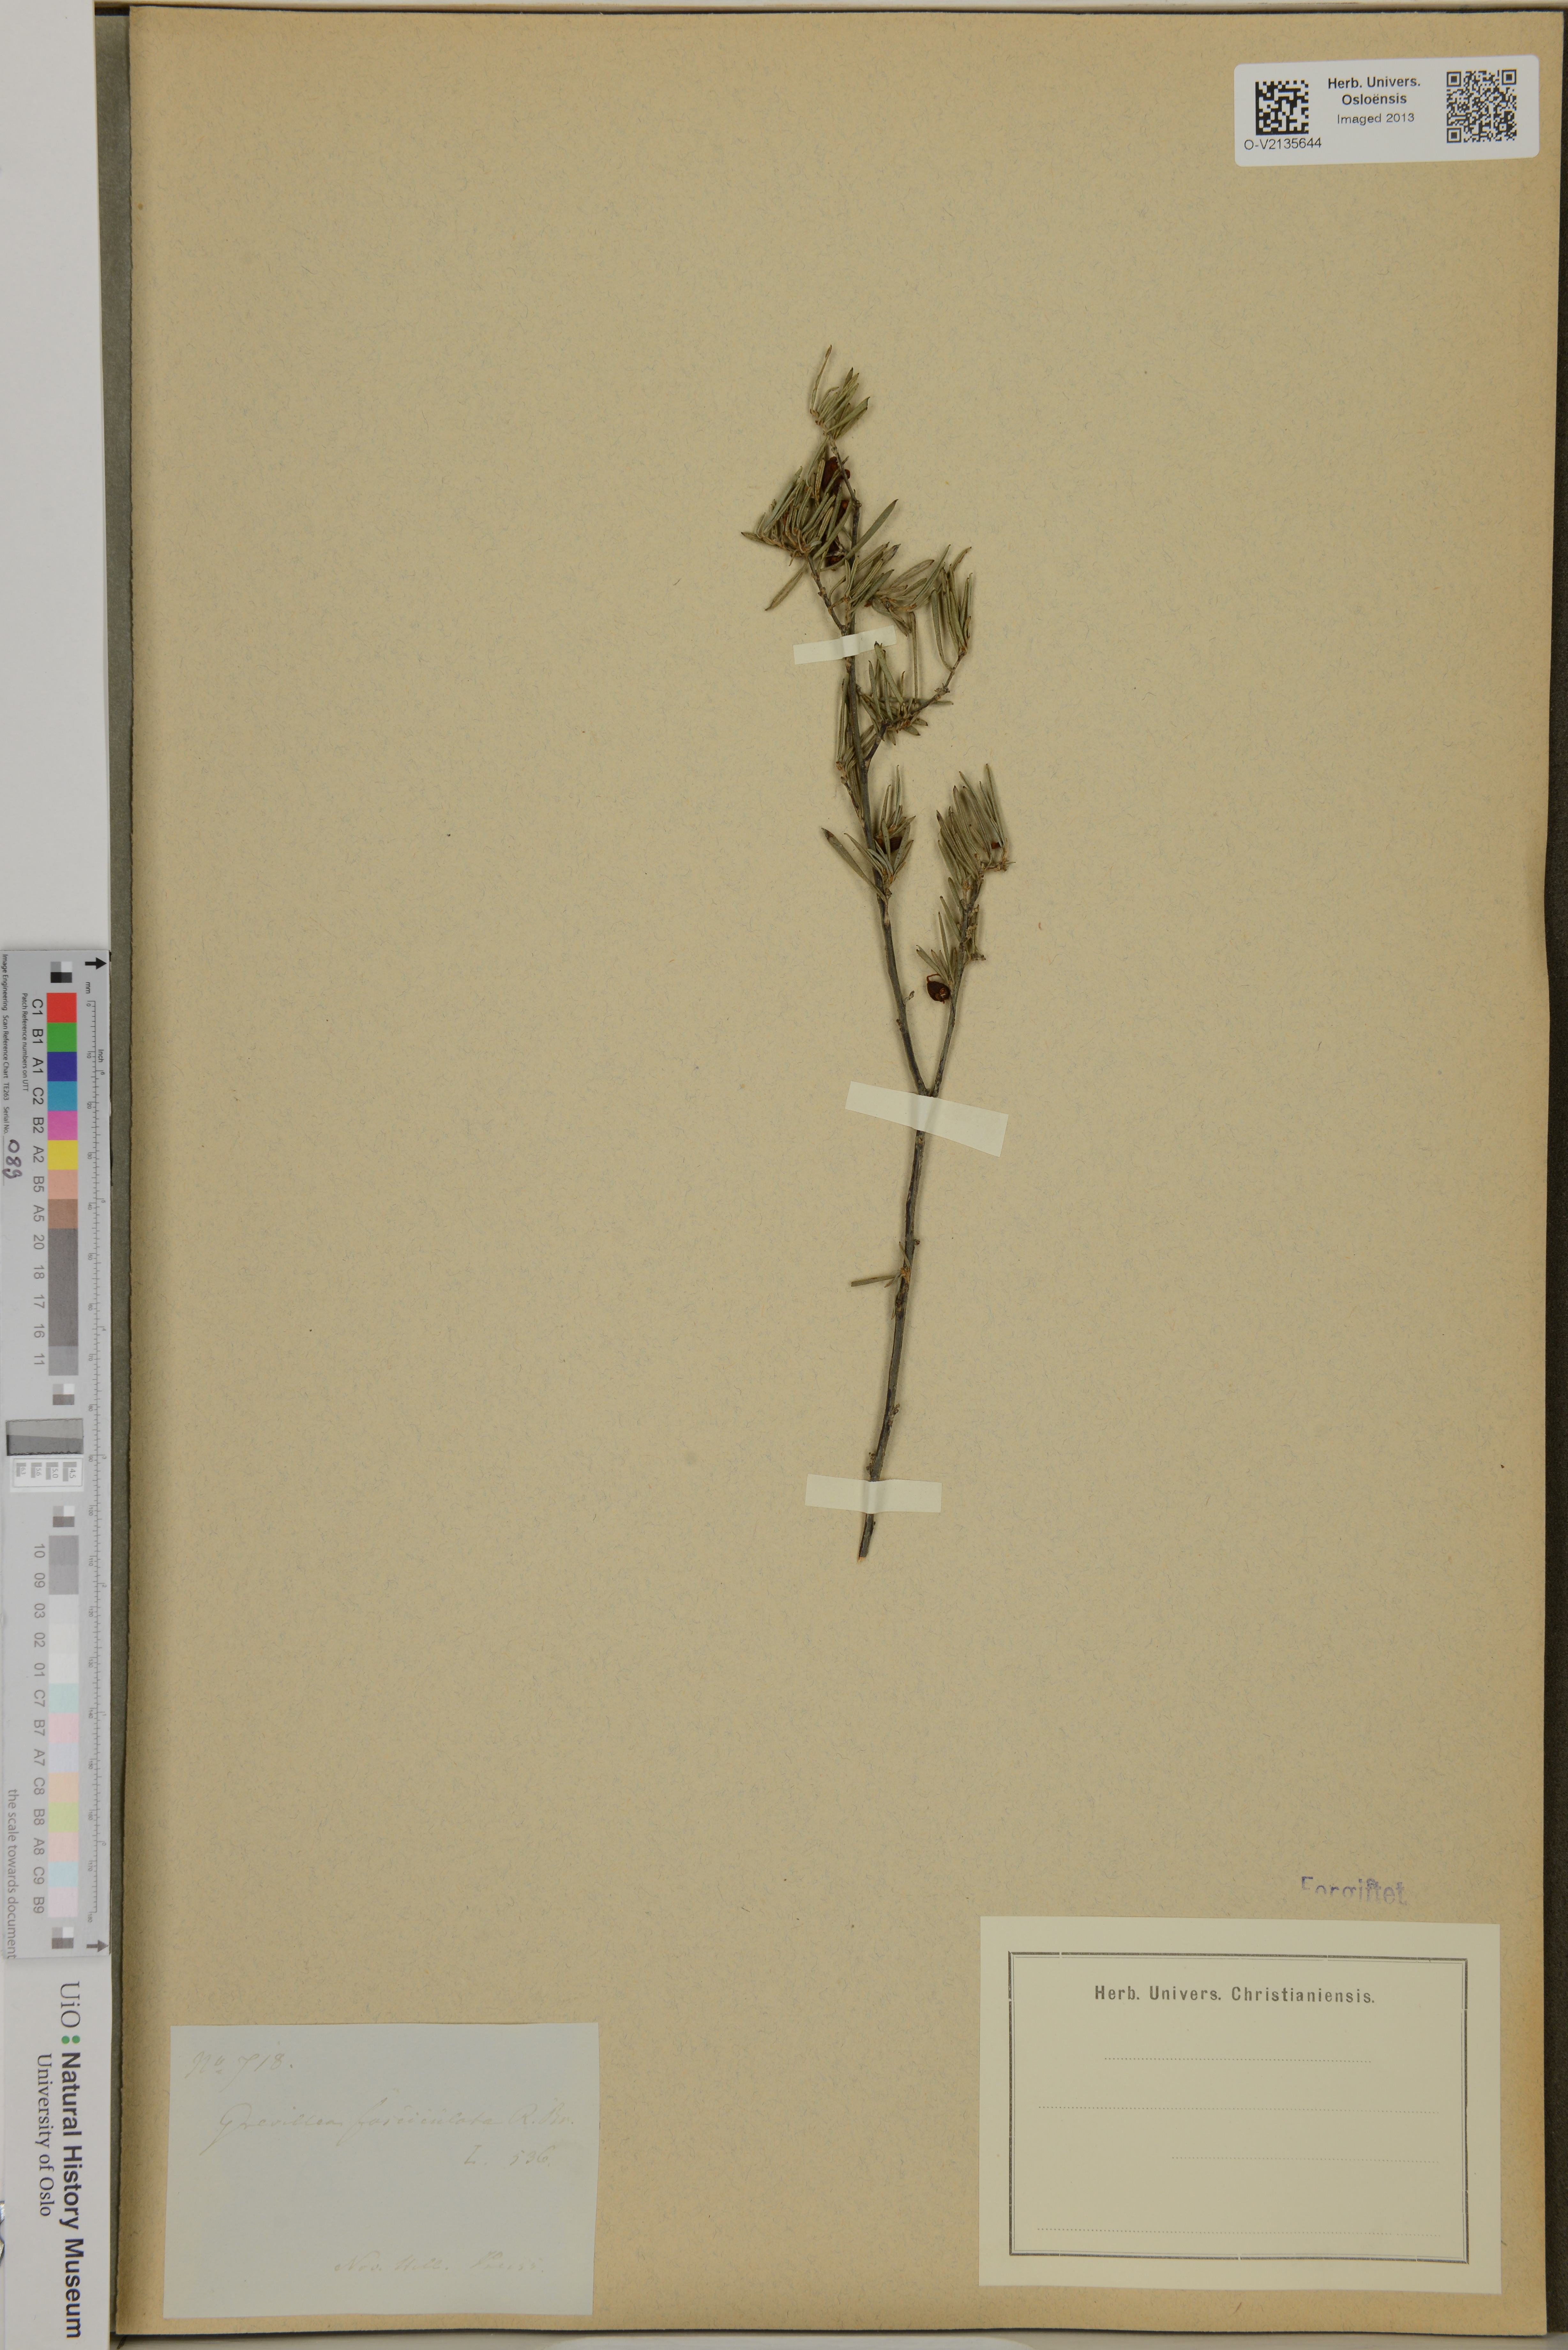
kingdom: Plantae
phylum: Tracheophyta
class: Magnoliopsida
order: Proteales
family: Proteaceae
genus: Grevillea
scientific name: Grevillea fasciculata
